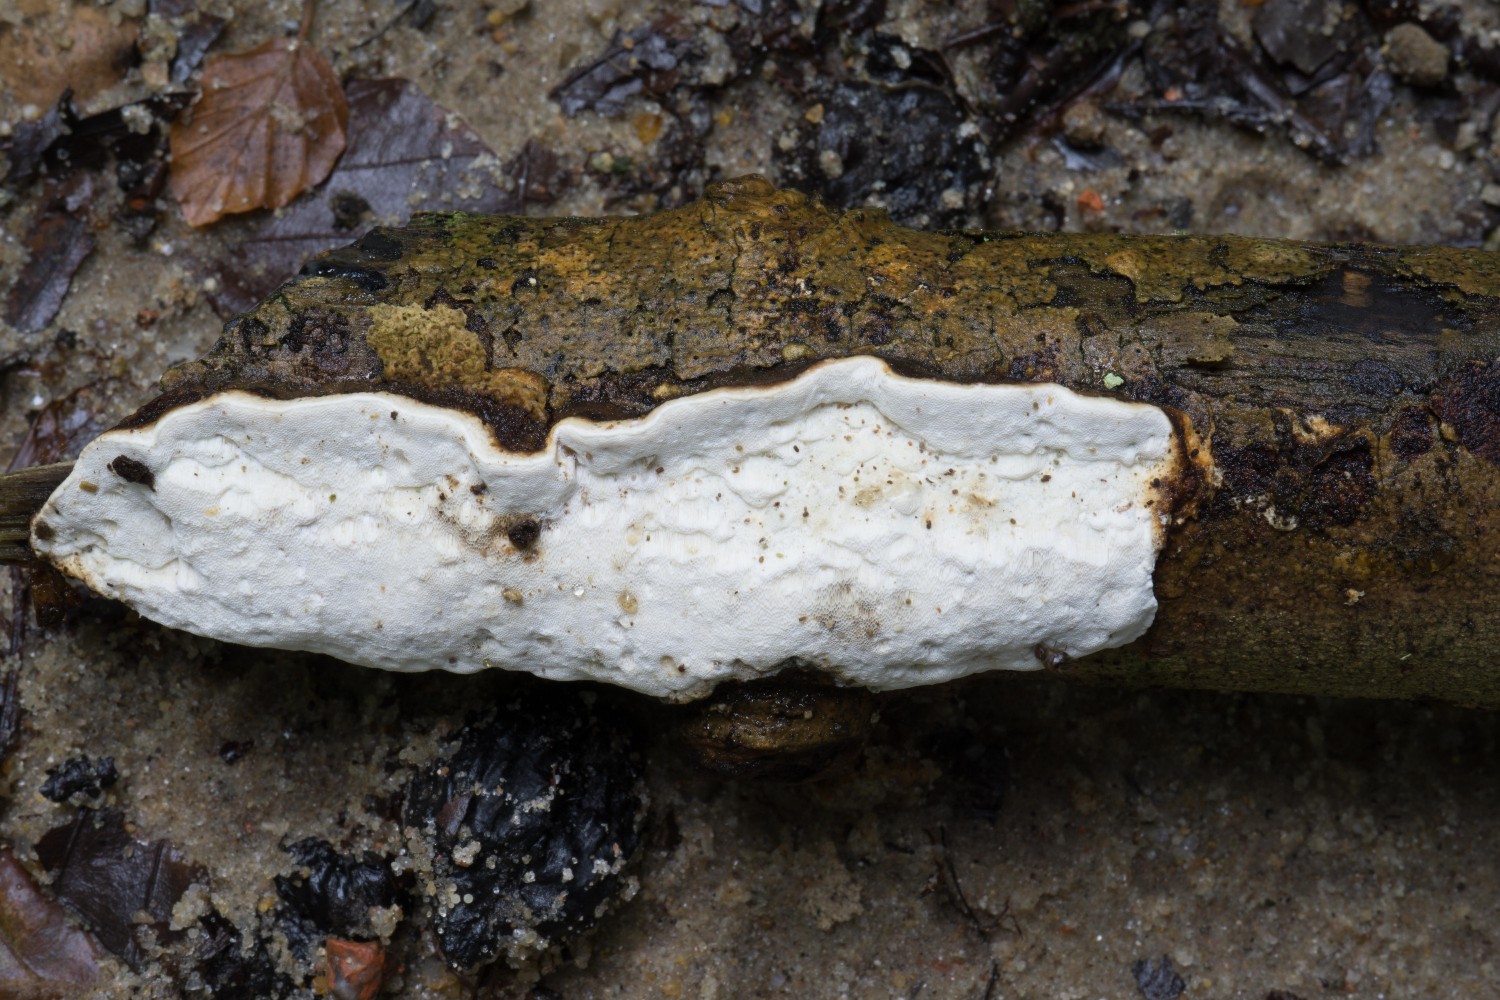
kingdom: Fungi
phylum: Basidiomycota
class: Agaricomycetes
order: Polyporales
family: Incrustoporiaceae
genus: Skeletocutis
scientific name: Skeletocutis nemoralis
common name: stor krystalporesvamp
